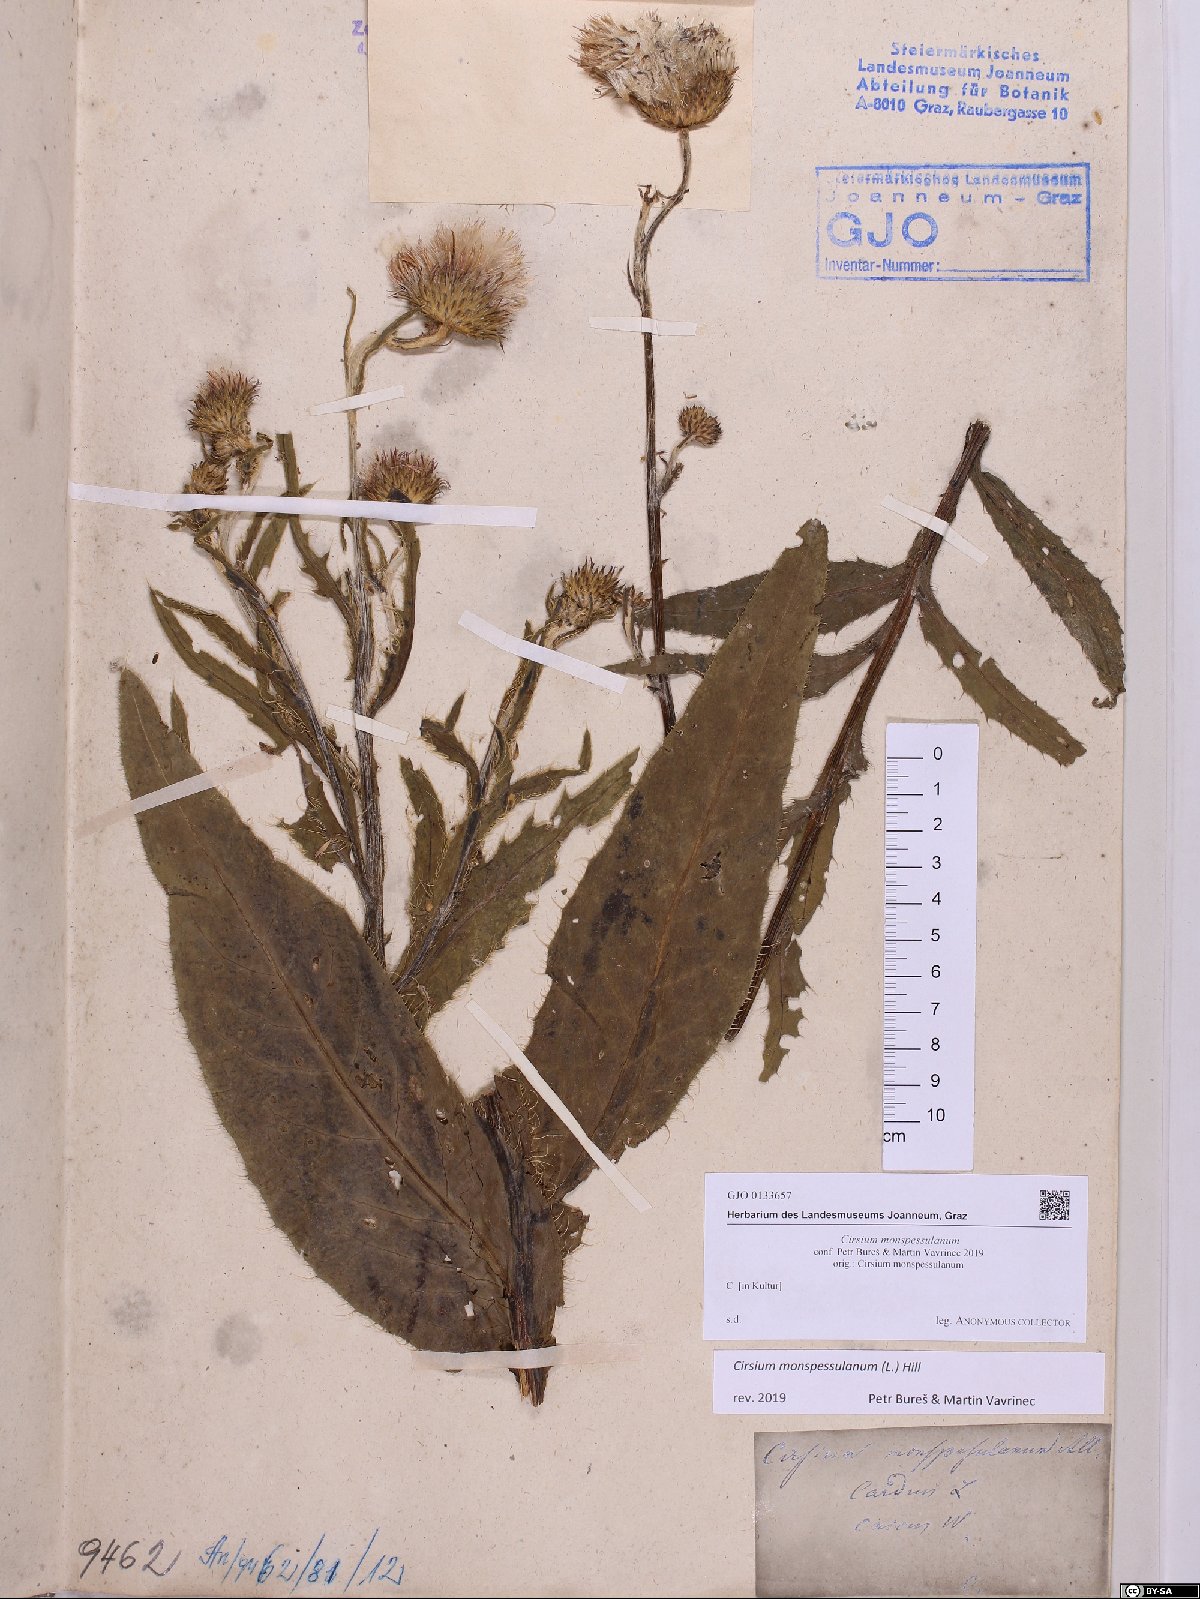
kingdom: Plantae
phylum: Tracheophyta
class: Magnoliopsida
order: Asterales
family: Asteraceae
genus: Cirsium
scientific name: Cirsium monspessulanum
